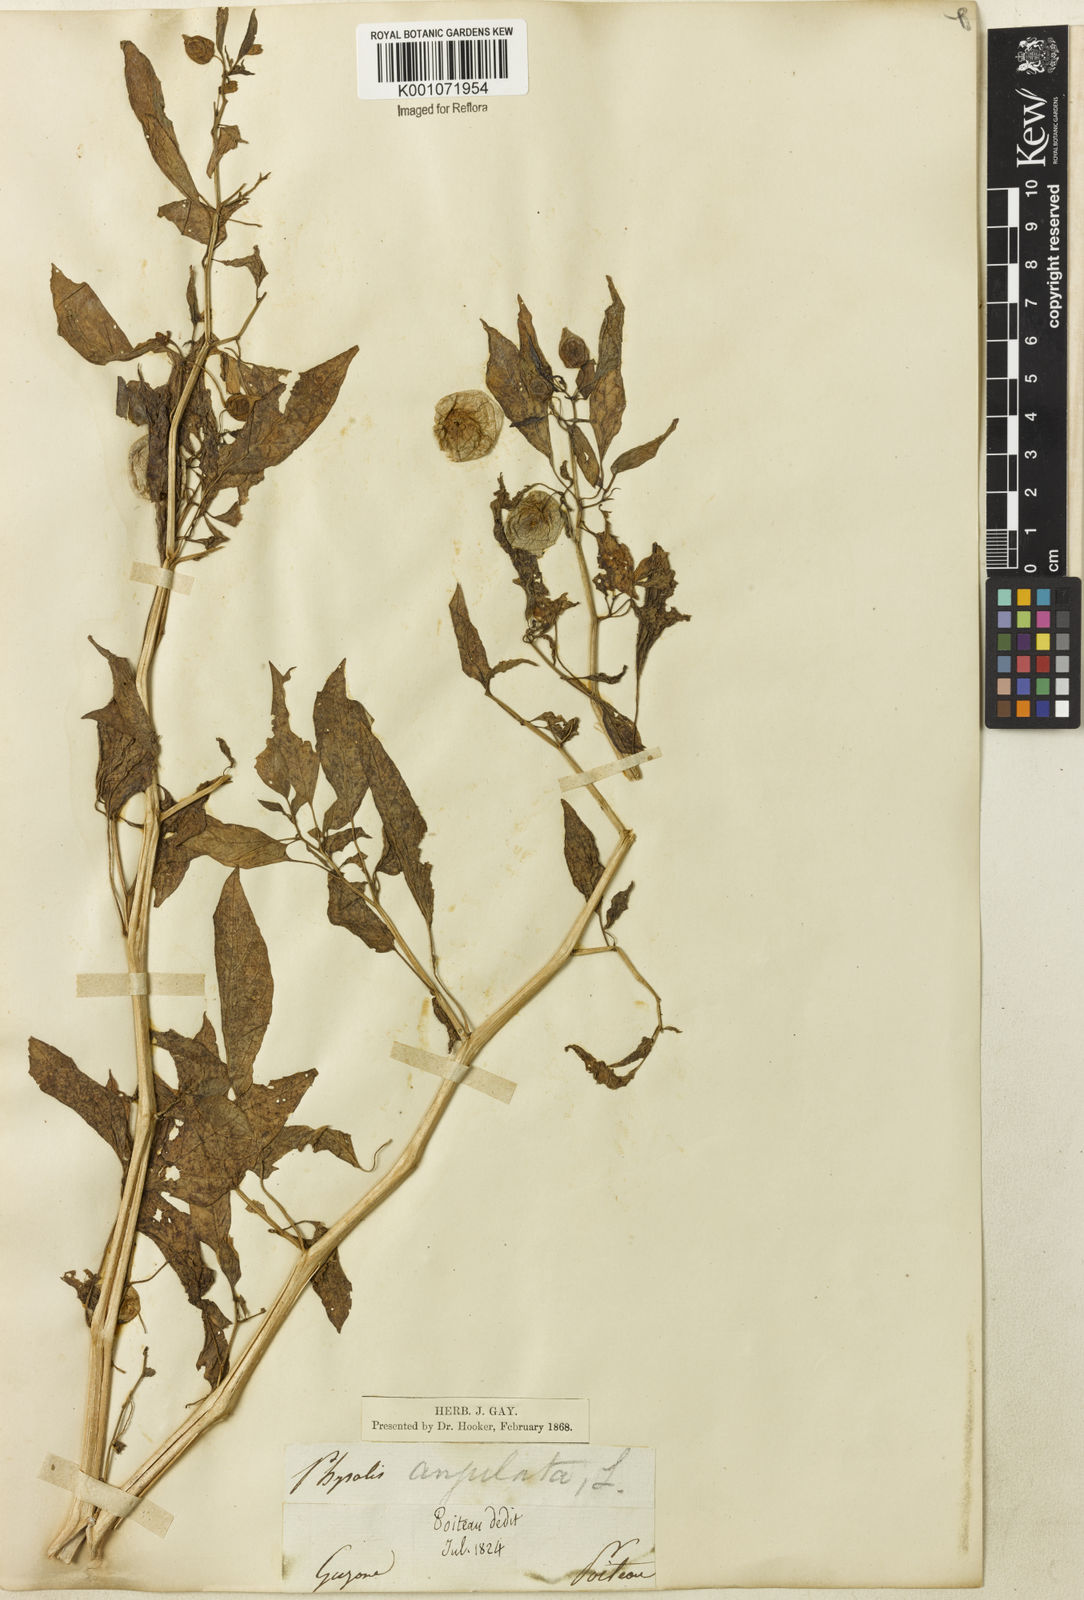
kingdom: Plantae
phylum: Tracheophyta
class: Magnoliopsida
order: Solanales
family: Solanaceae
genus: Physalis
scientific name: Physalis angulata
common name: Angular winter-cherry
